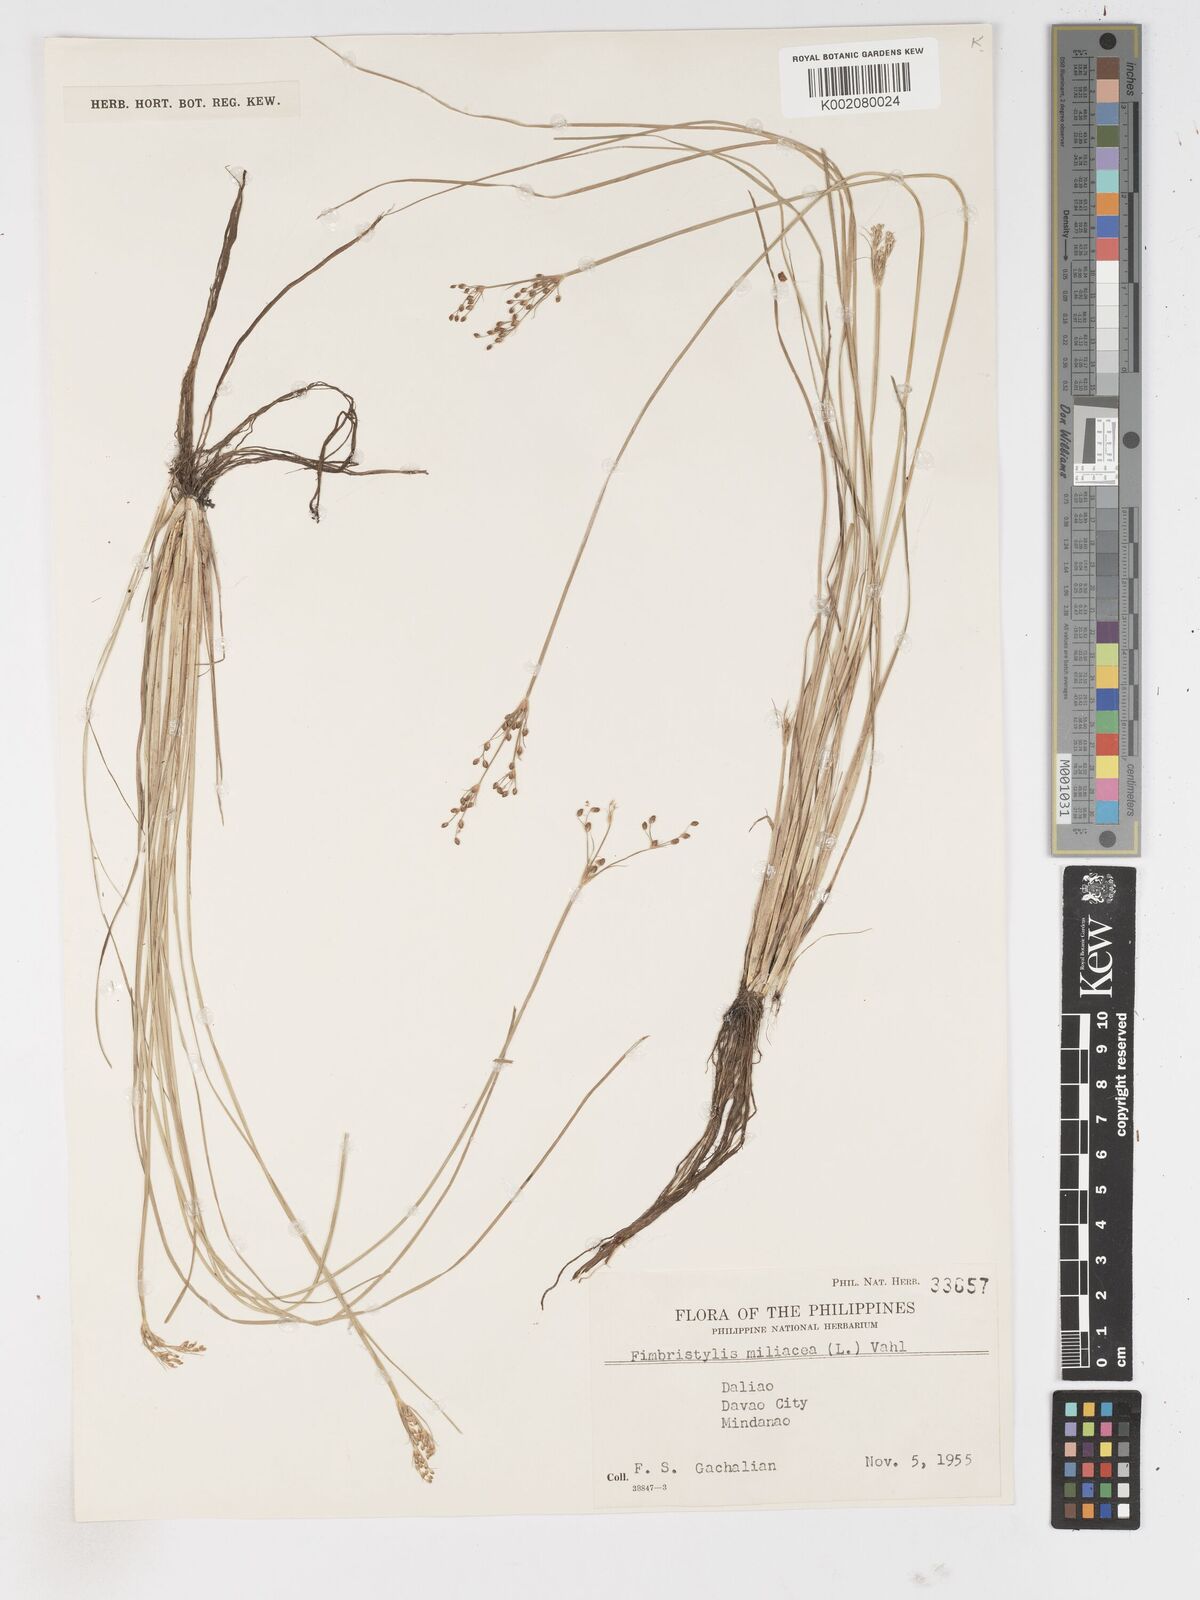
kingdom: Plantae
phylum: Tracheophyta
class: Liliopsida
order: Poales
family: Cyperaceae
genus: Fimbristylis
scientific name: Fimbristylis littoralis
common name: Fimbry
